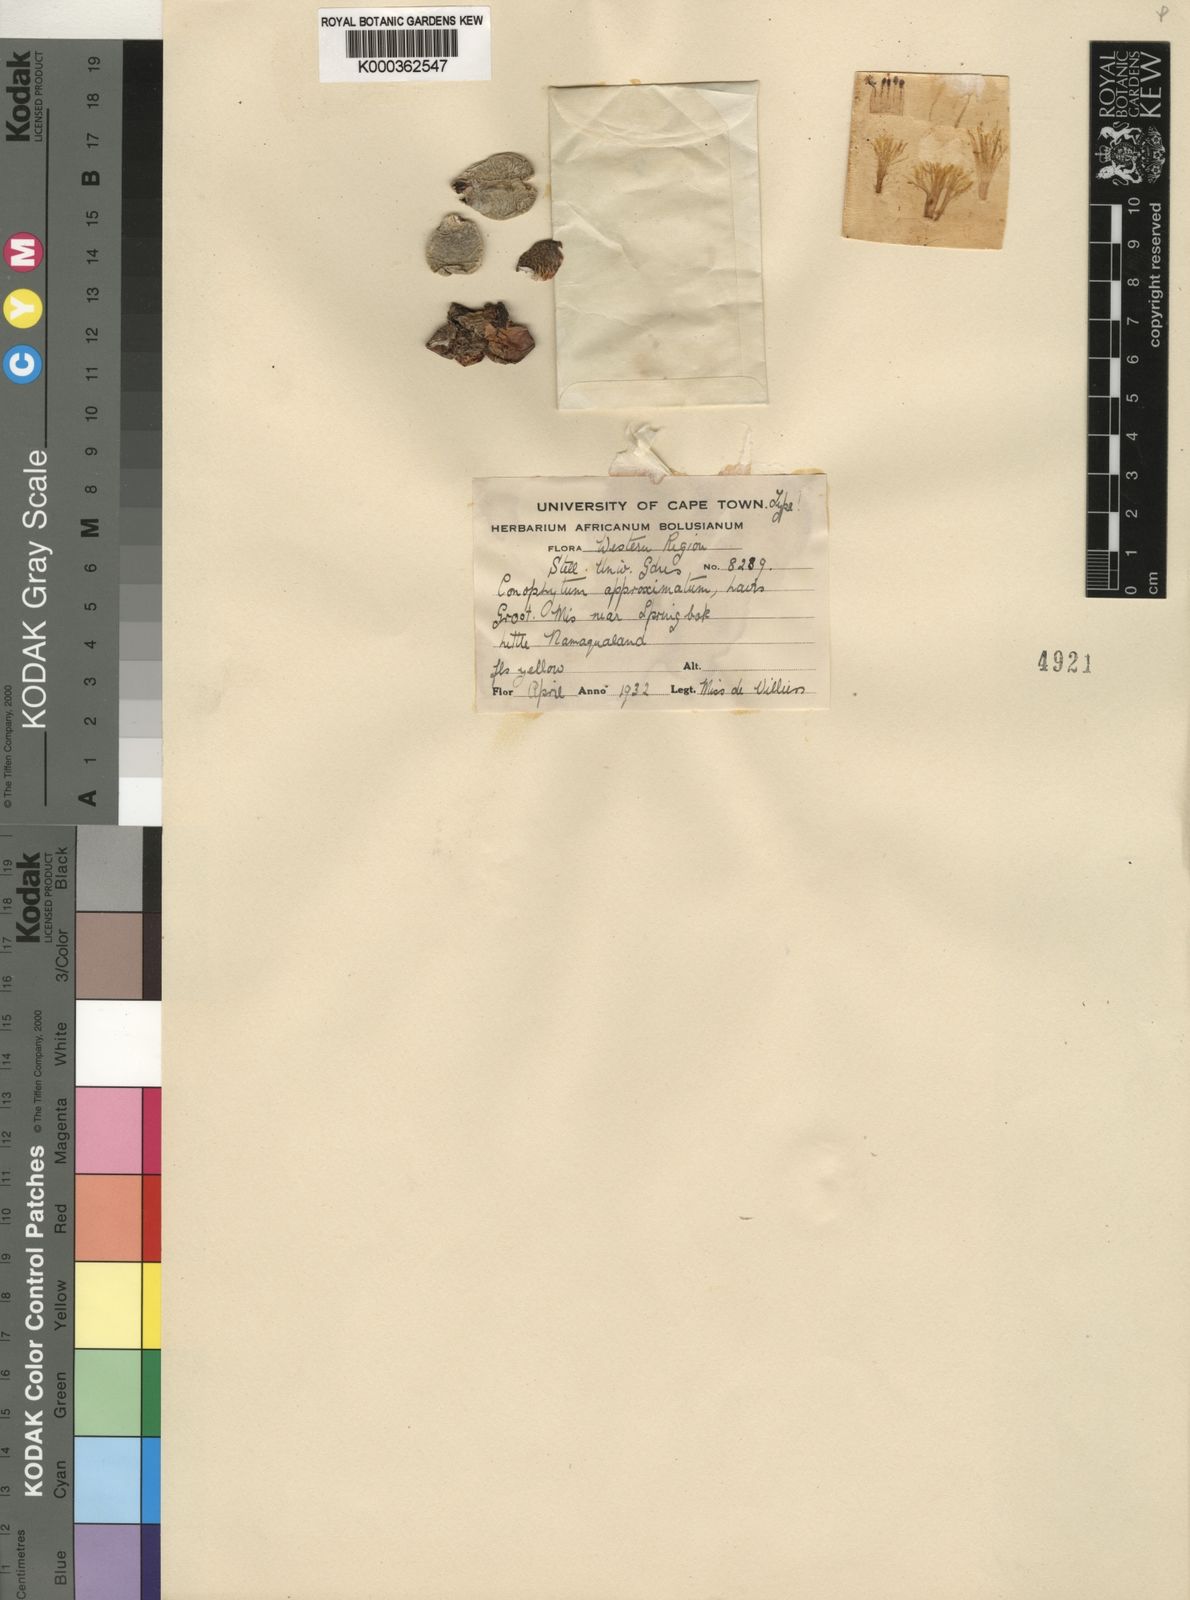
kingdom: Plantae
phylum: Tracheophyta
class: Magnoliopsida
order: Caryophyllales
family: Aizoaceae
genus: Conophytum
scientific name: Conophytum bilobum
